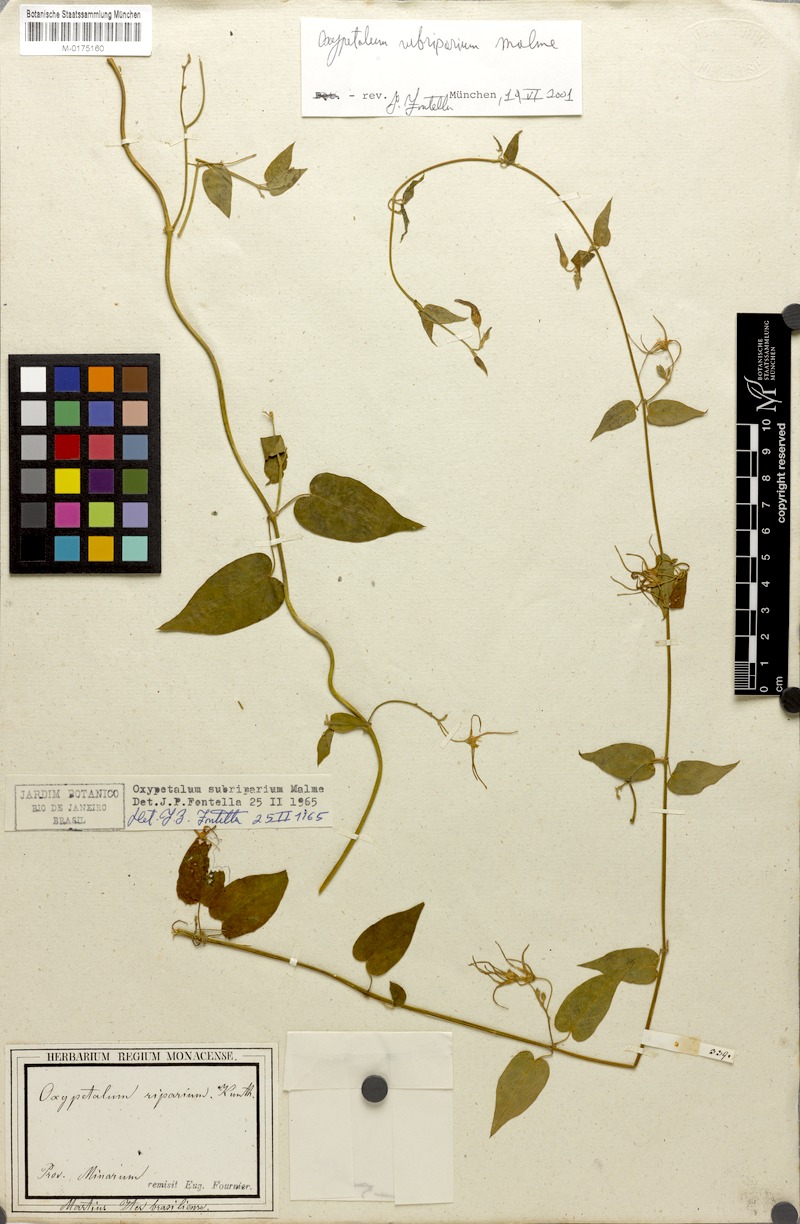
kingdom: Plantae
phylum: Tracheophyta
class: Magnoliopsida
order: Gentianales
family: Apocynaceae
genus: Oxypetalum
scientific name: Oxypetalum cordifolium
